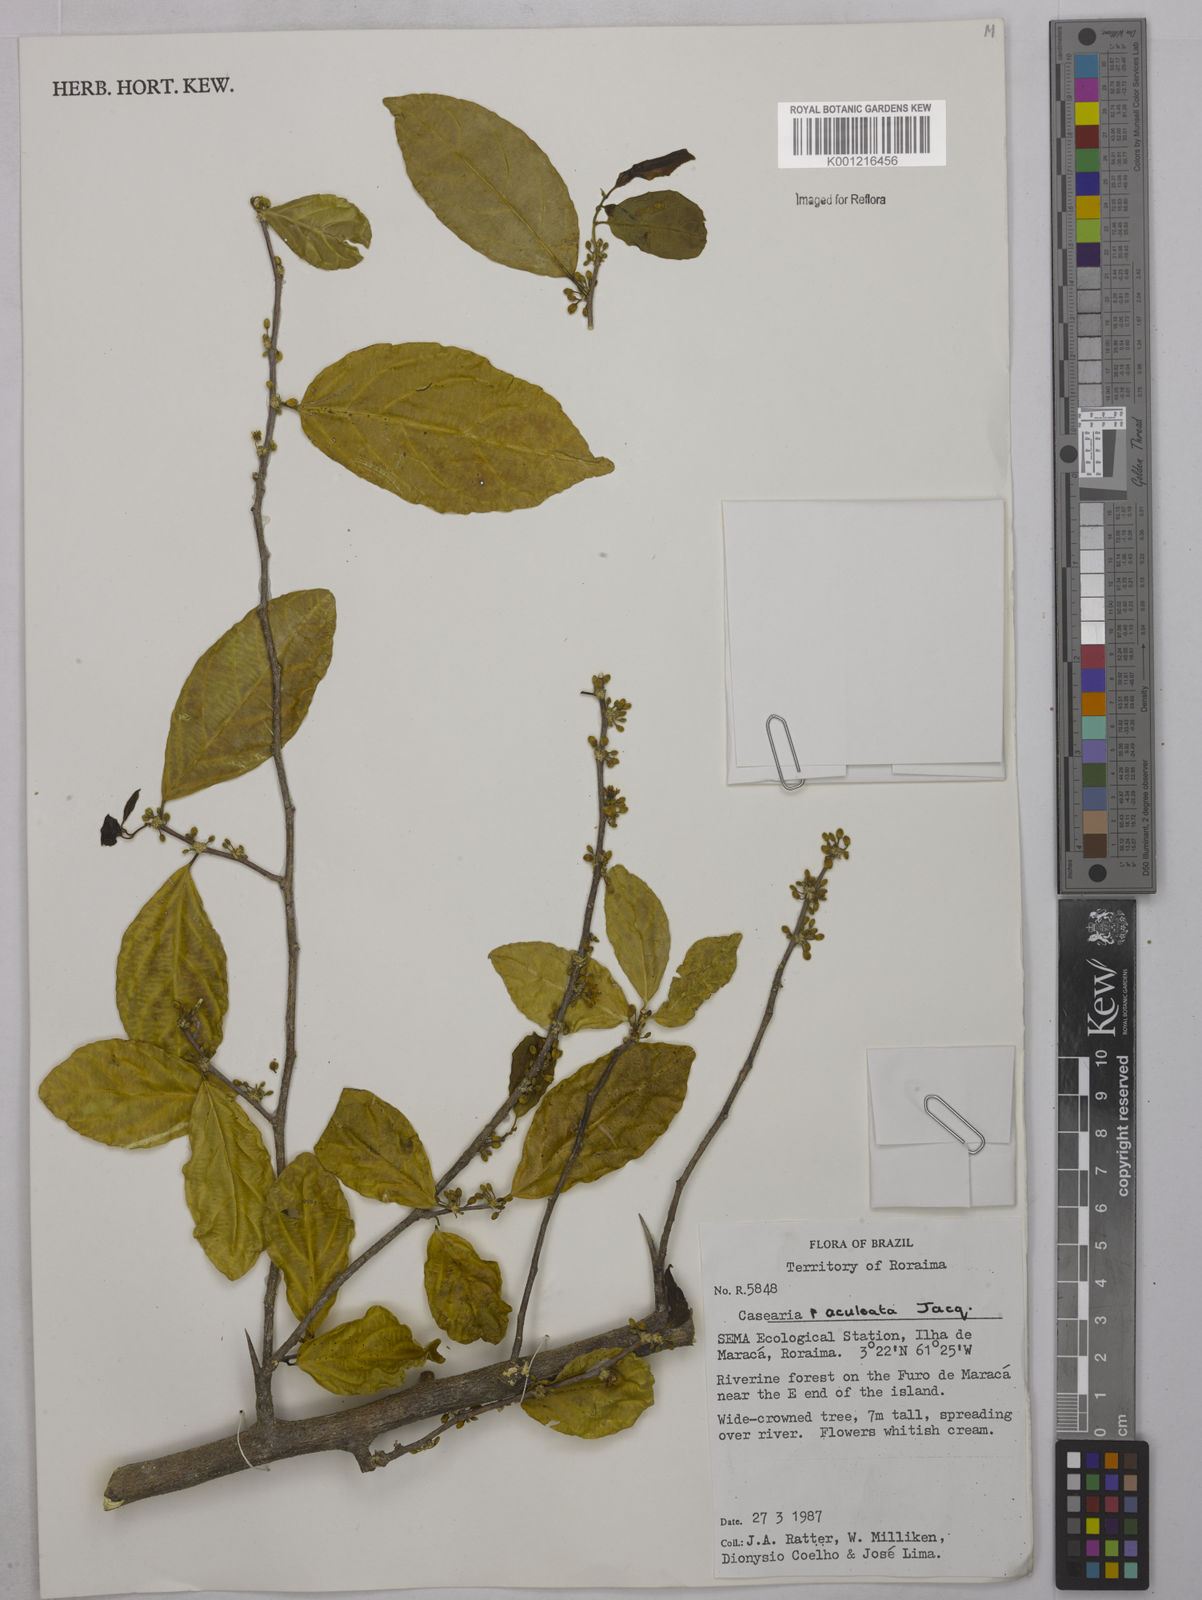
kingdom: Plantae
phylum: Tracheophyta
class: Magnoliopsida
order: Malpighiales
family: Salicaceae
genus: Casearia
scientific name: Casearia aculeata
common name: Cockspur
